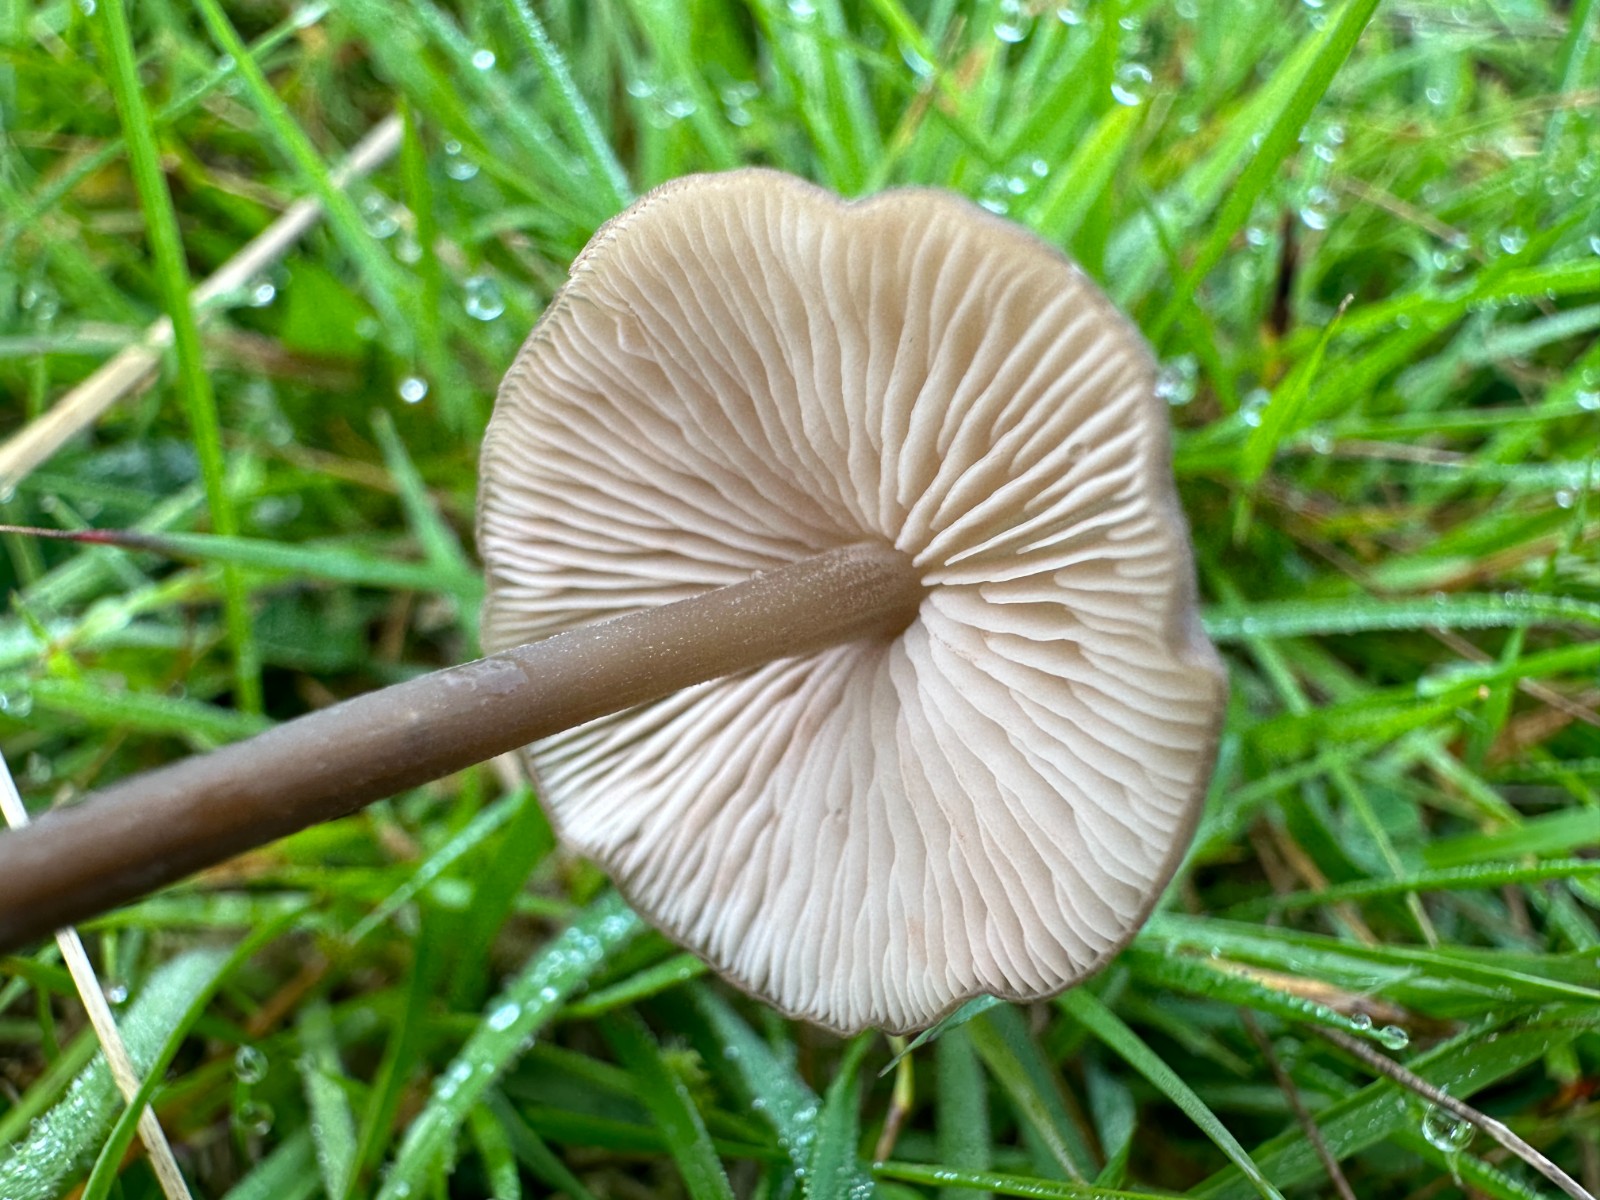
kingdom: Fungi
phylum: Basidiomycota
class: Agaricomycetes
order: Agaricales
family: Entolomataceae
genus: Entoloma
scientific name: Entoloma
